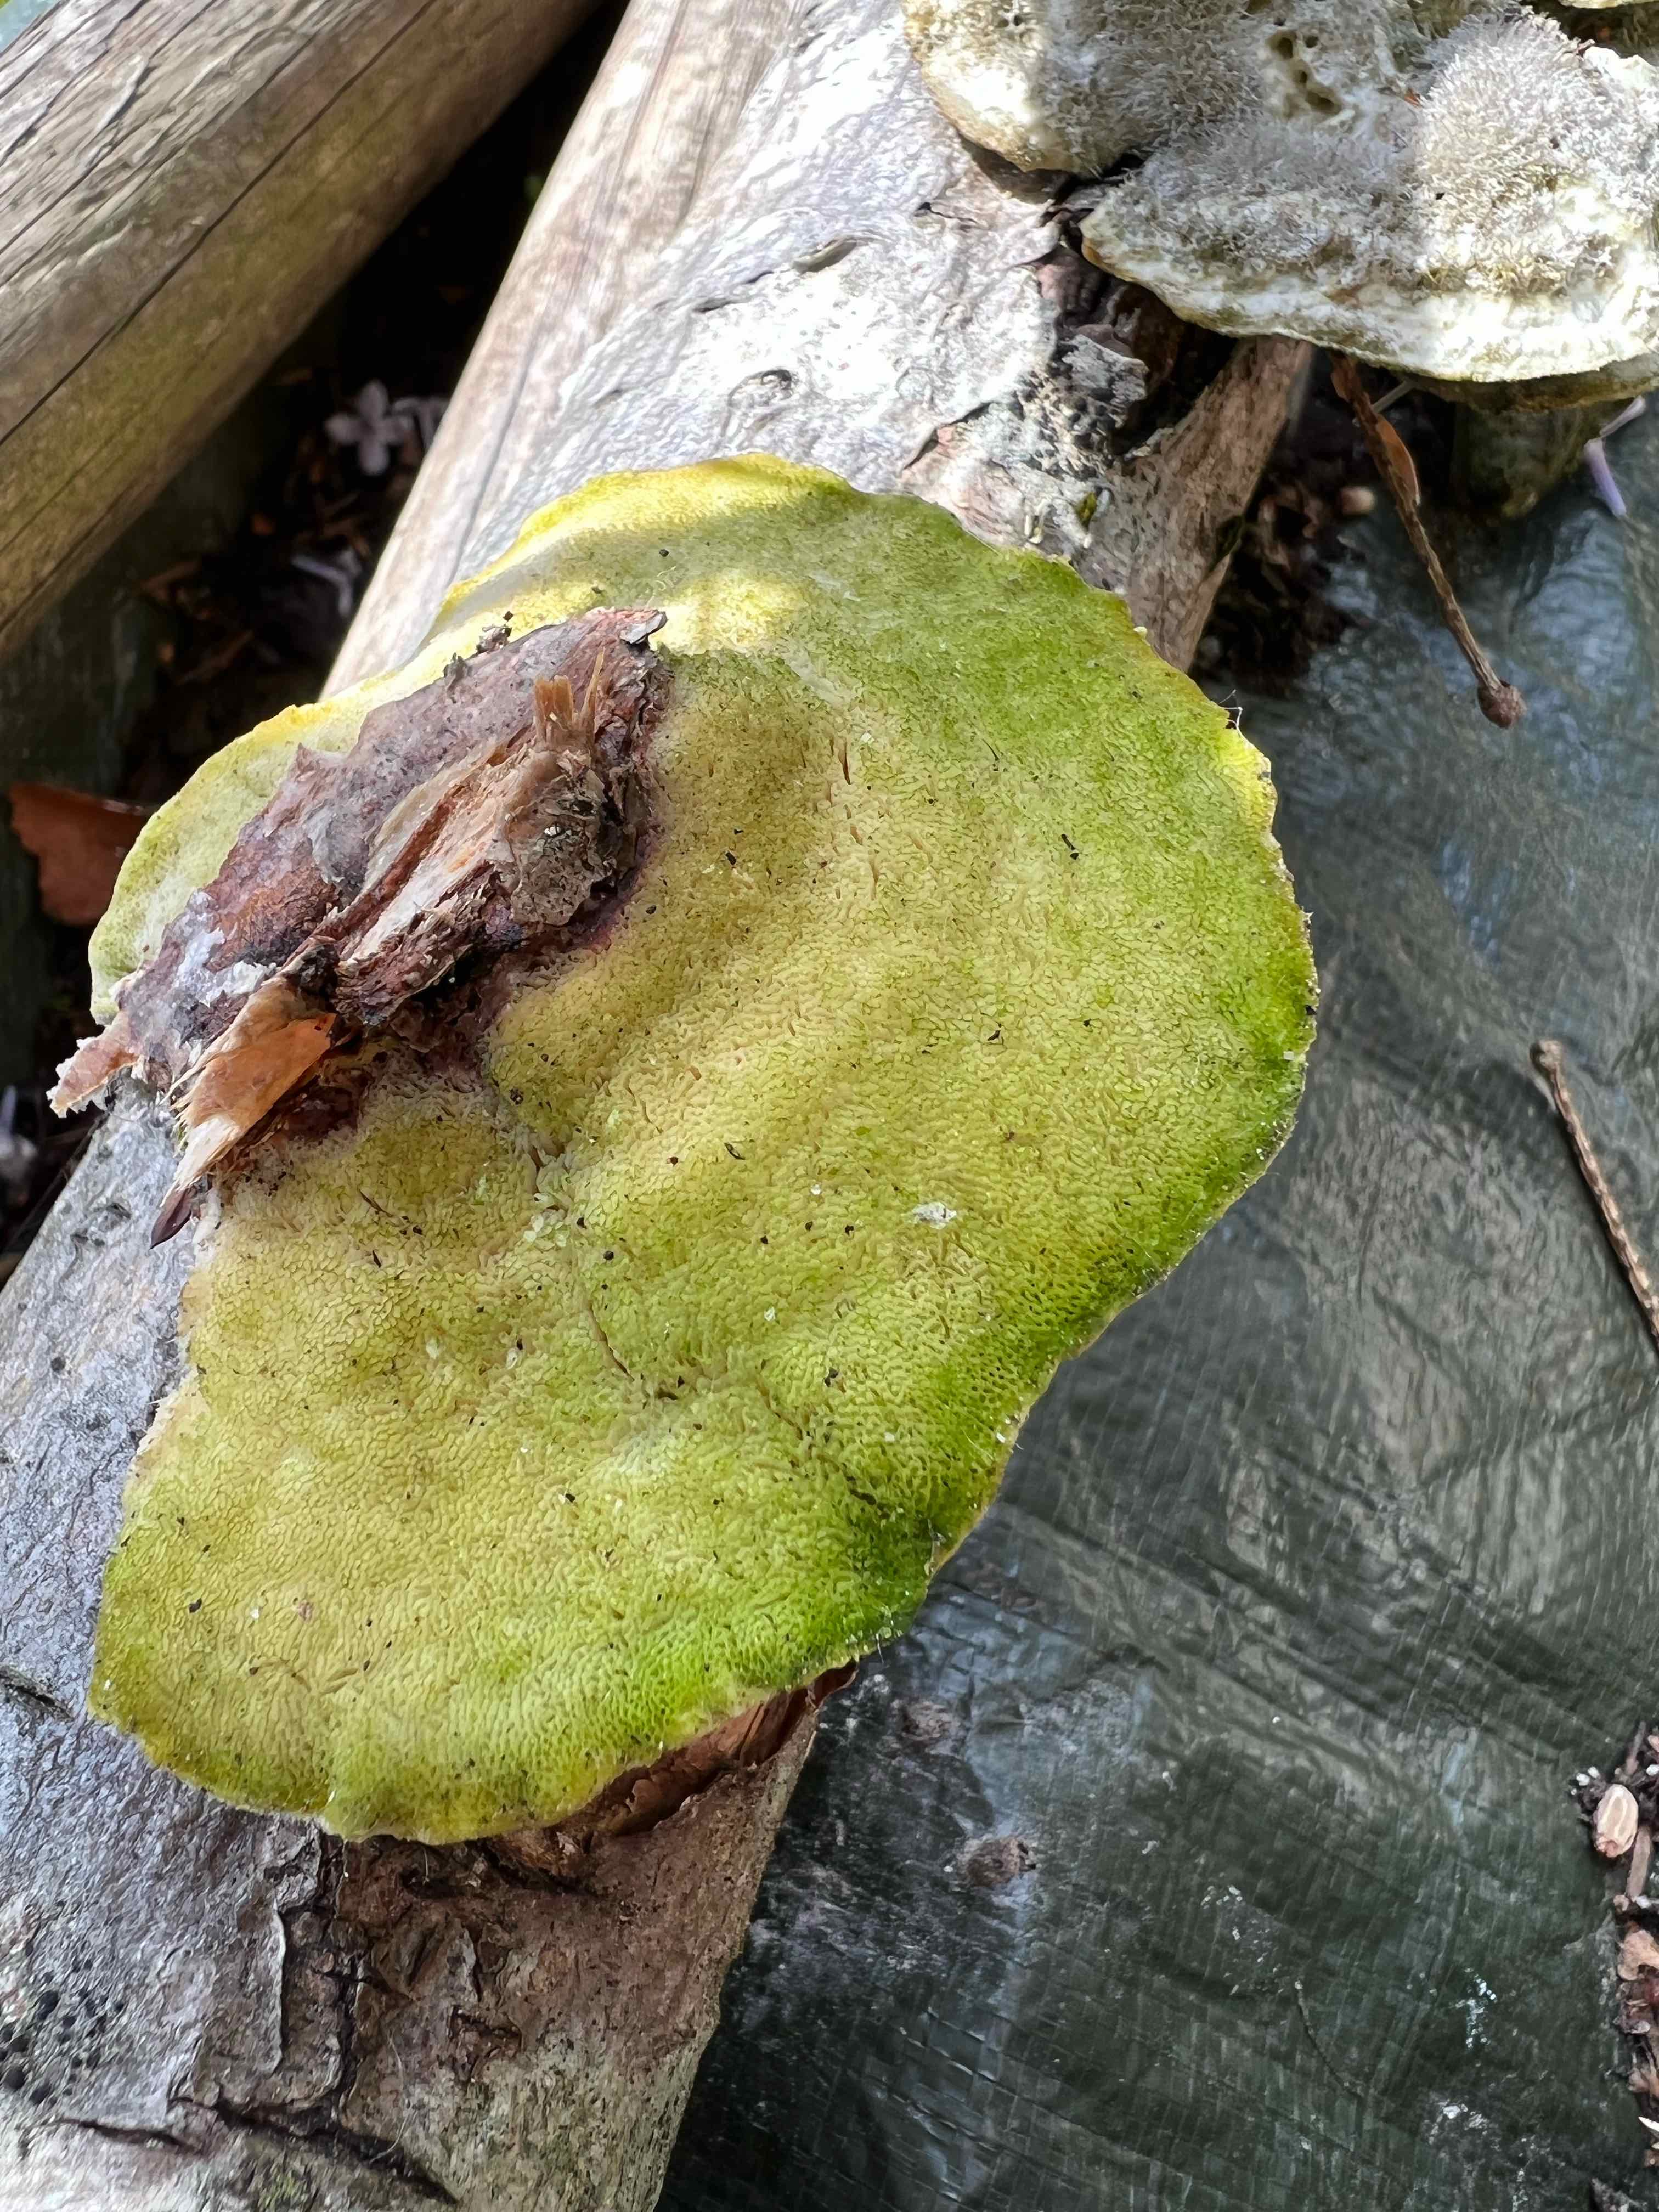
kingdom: Fungi
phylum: Basidiomycota
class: Agaricomycetes
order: Polyporales
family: Polyporaceae
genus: Trametes
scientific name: Trametes hirsuta
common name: håret læderporesvamp
